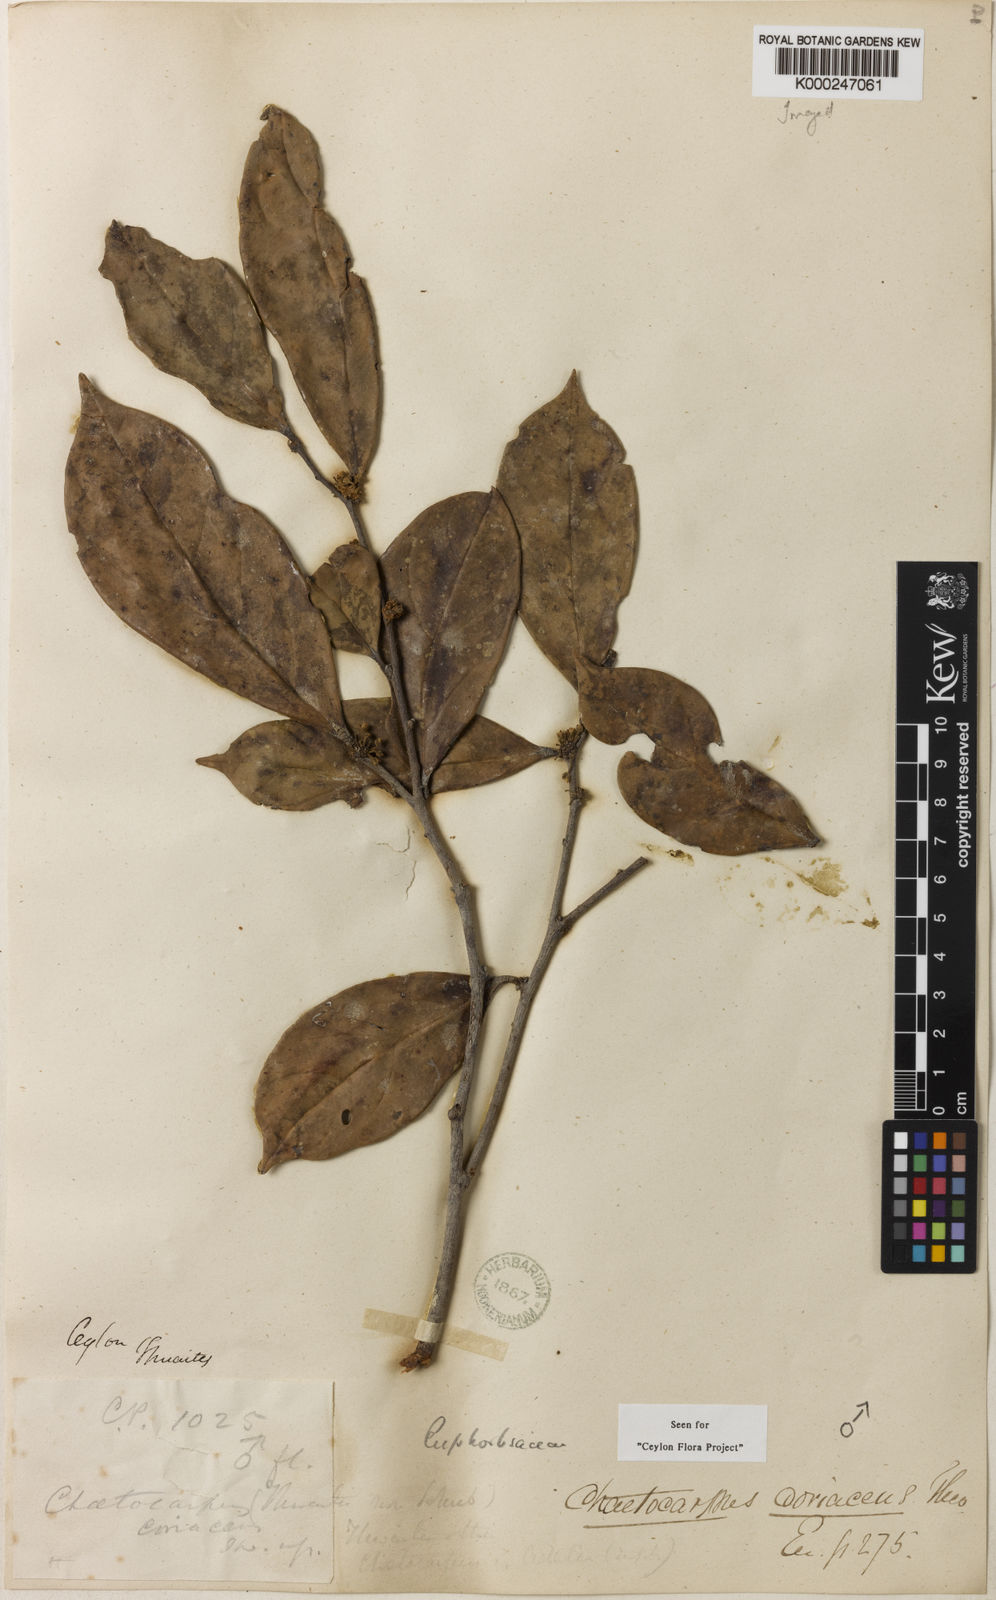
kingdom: Plantae
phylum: Tracheophyta
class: Magnoliopsida
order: Malpighiales
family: Peraceae
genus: Chaetocarpus
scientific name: Chaetocarpus coriaceus
